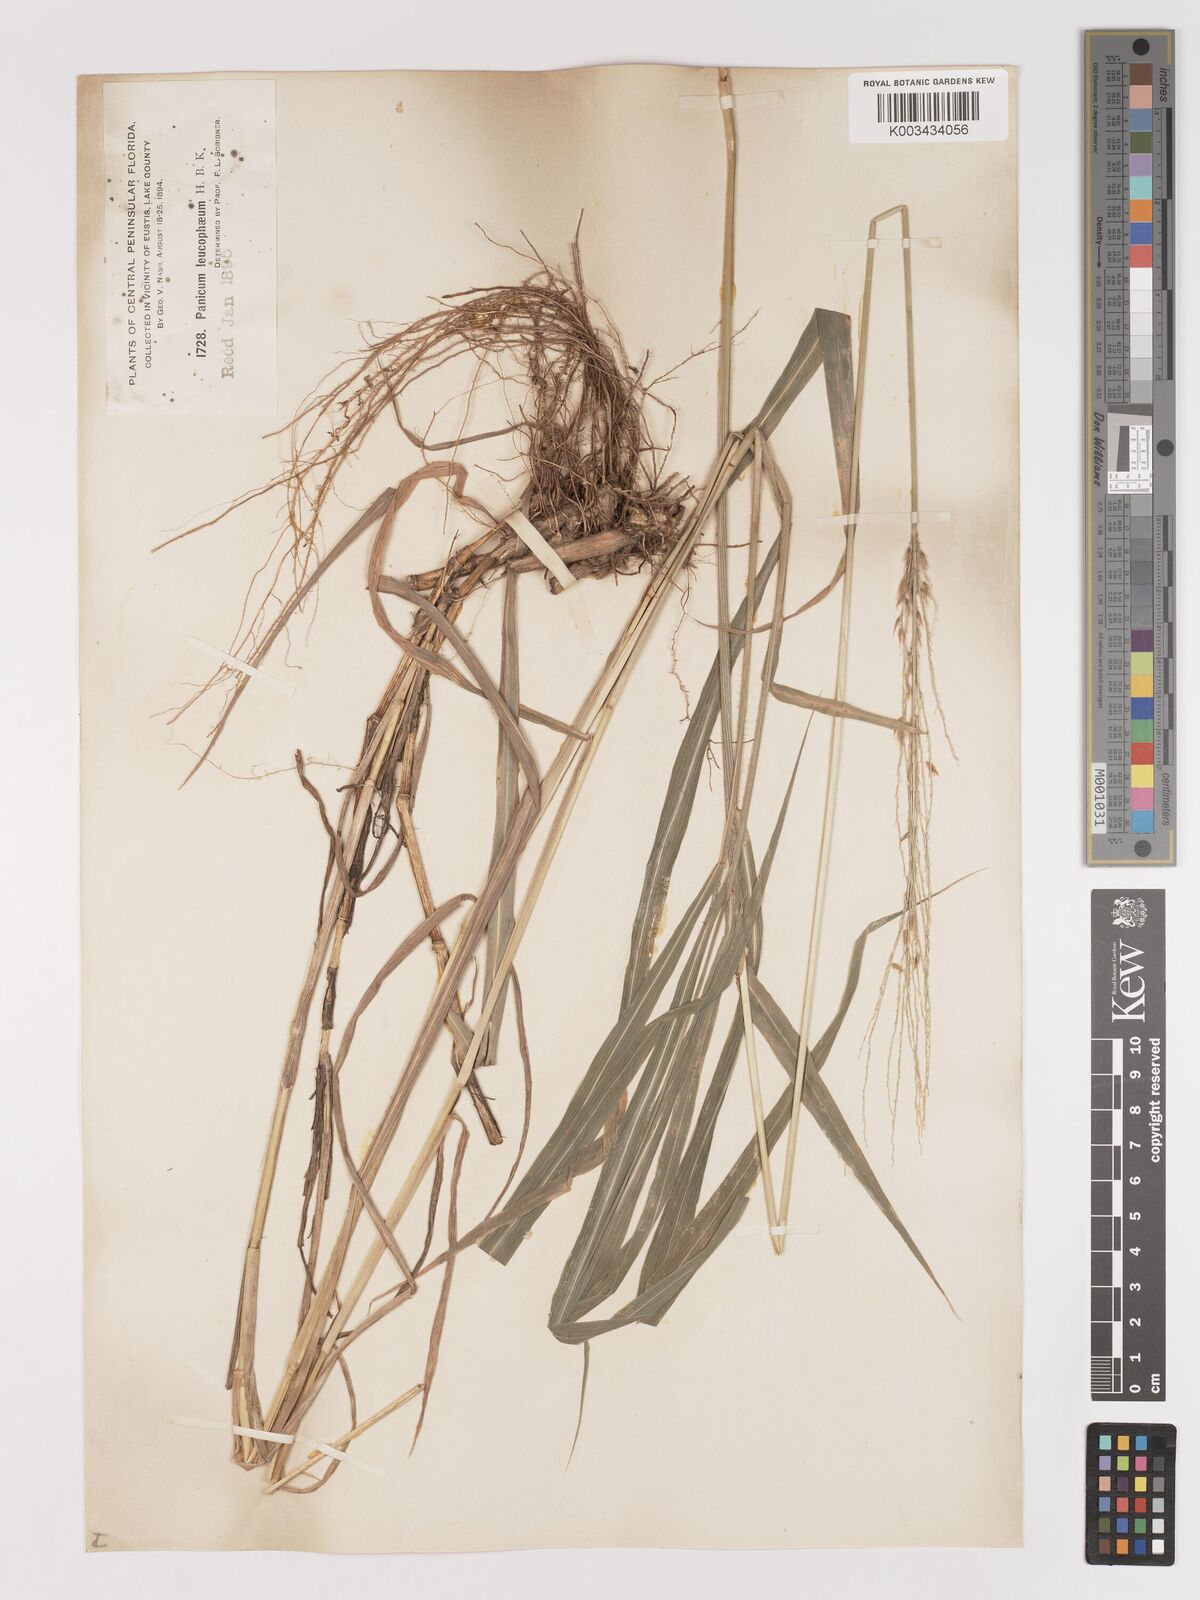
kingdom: Plantae
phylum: Tracheophyta
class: Liliopsida
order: Poales
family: Poaceae
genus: Digitaria
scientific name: Digitaria insularis
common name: Sourgrass
